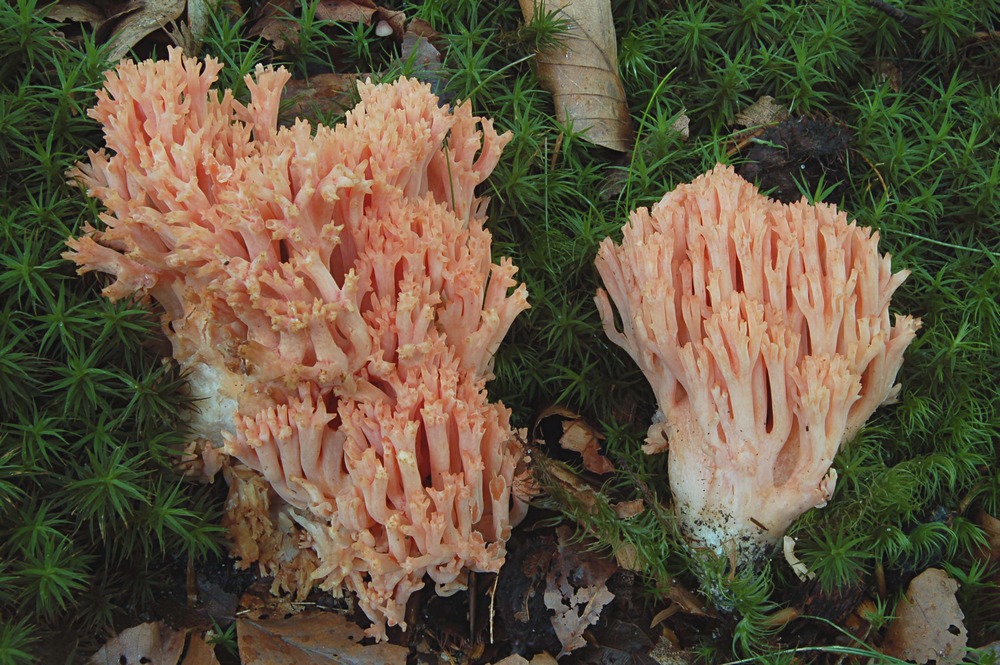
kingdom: Fungi
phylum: Basidiomycota
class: Agaricomycetes
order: Gomphales
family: Gomphaceae
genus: Ramaria
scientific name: Ramaria fagetorum
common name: abrikos-koralsvamp
